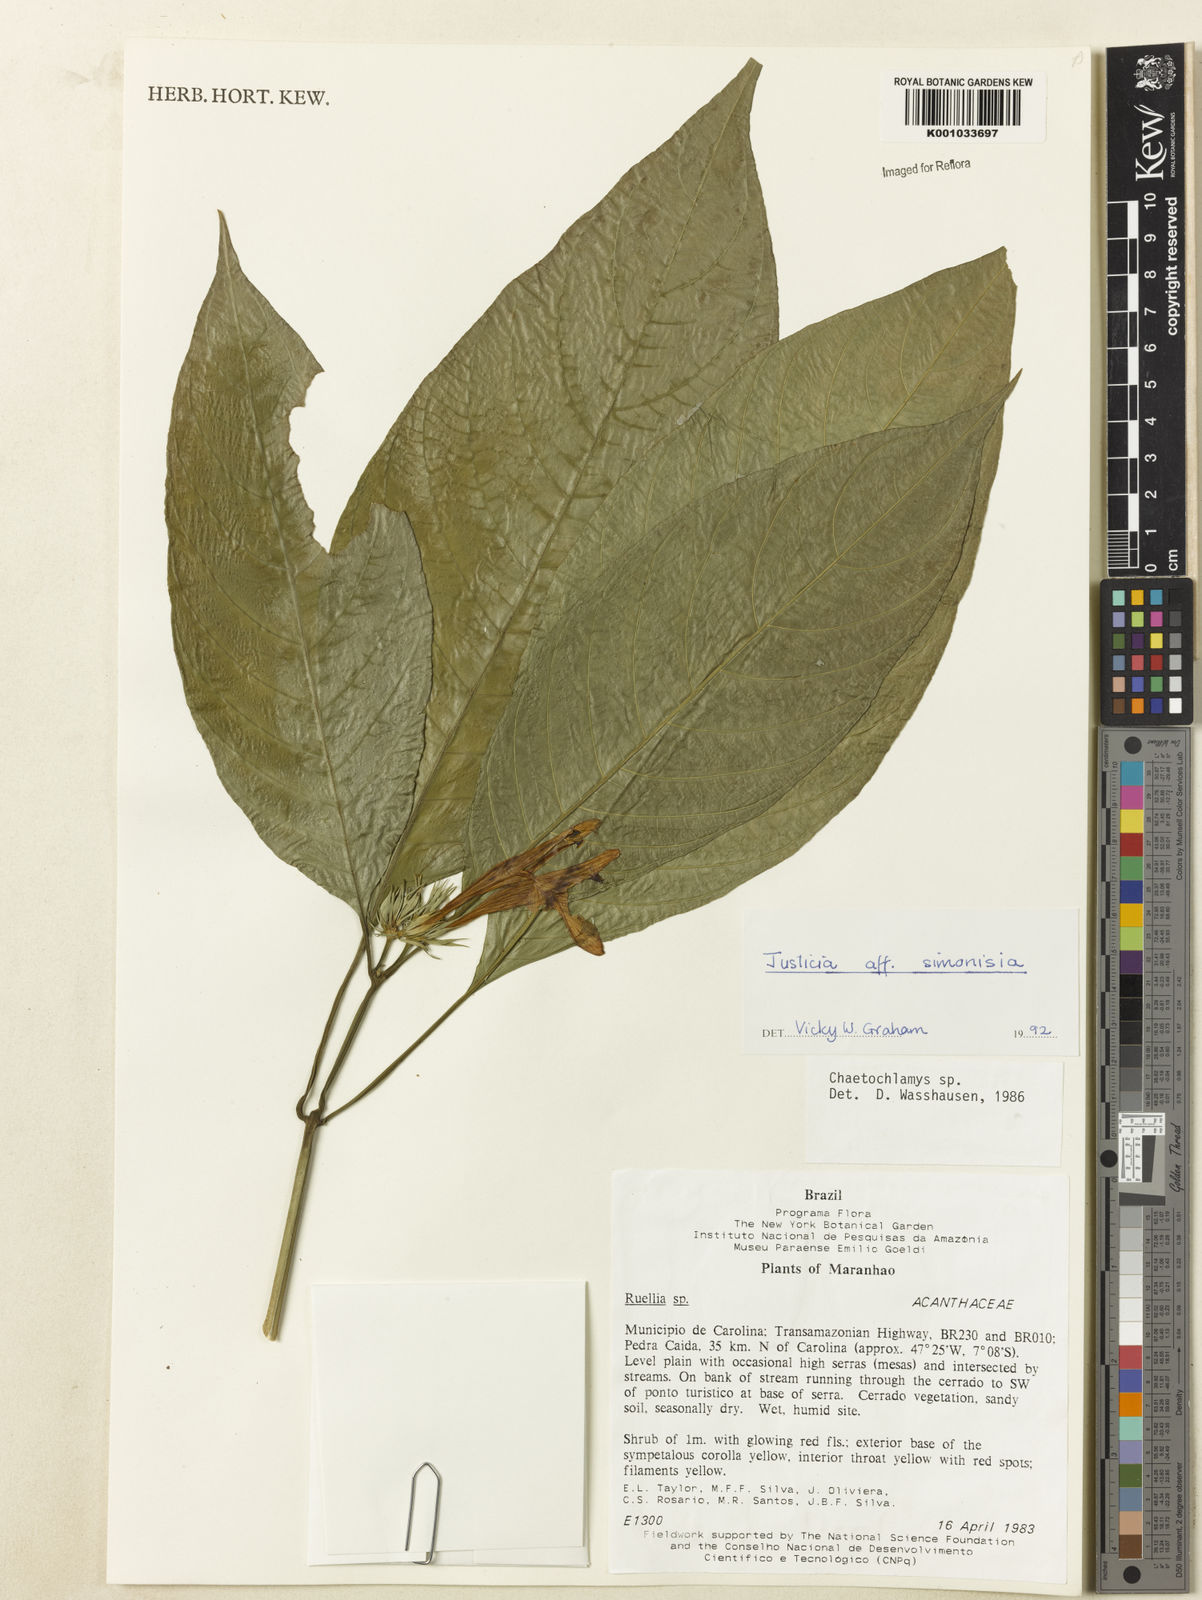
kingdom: Plantae
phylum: Tracheophyta
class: Magnoliopsida
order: Lamiales
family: Acanthaceae
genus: Justicia
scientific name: Justicia
